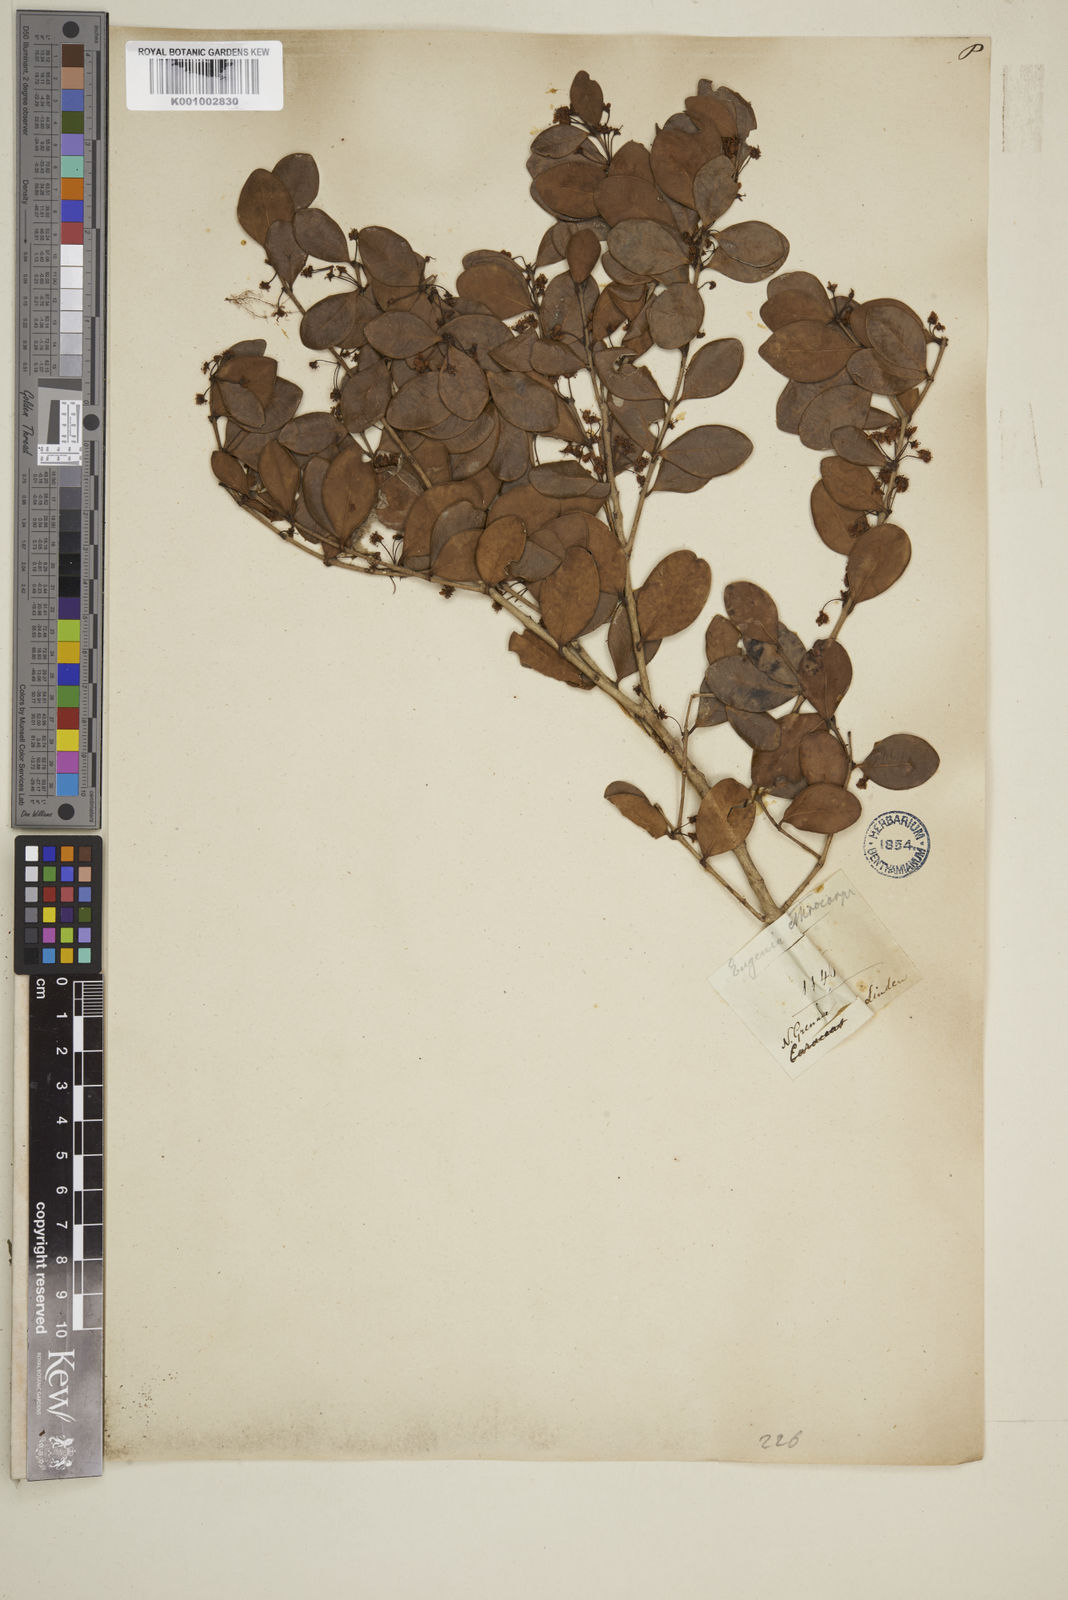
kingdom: Plantae
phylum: Tracheophyta
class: Magnoliopsida
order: Myrtales
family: Myrtaceae
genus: Eugenia
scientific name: Eugenia erythrocarpa
